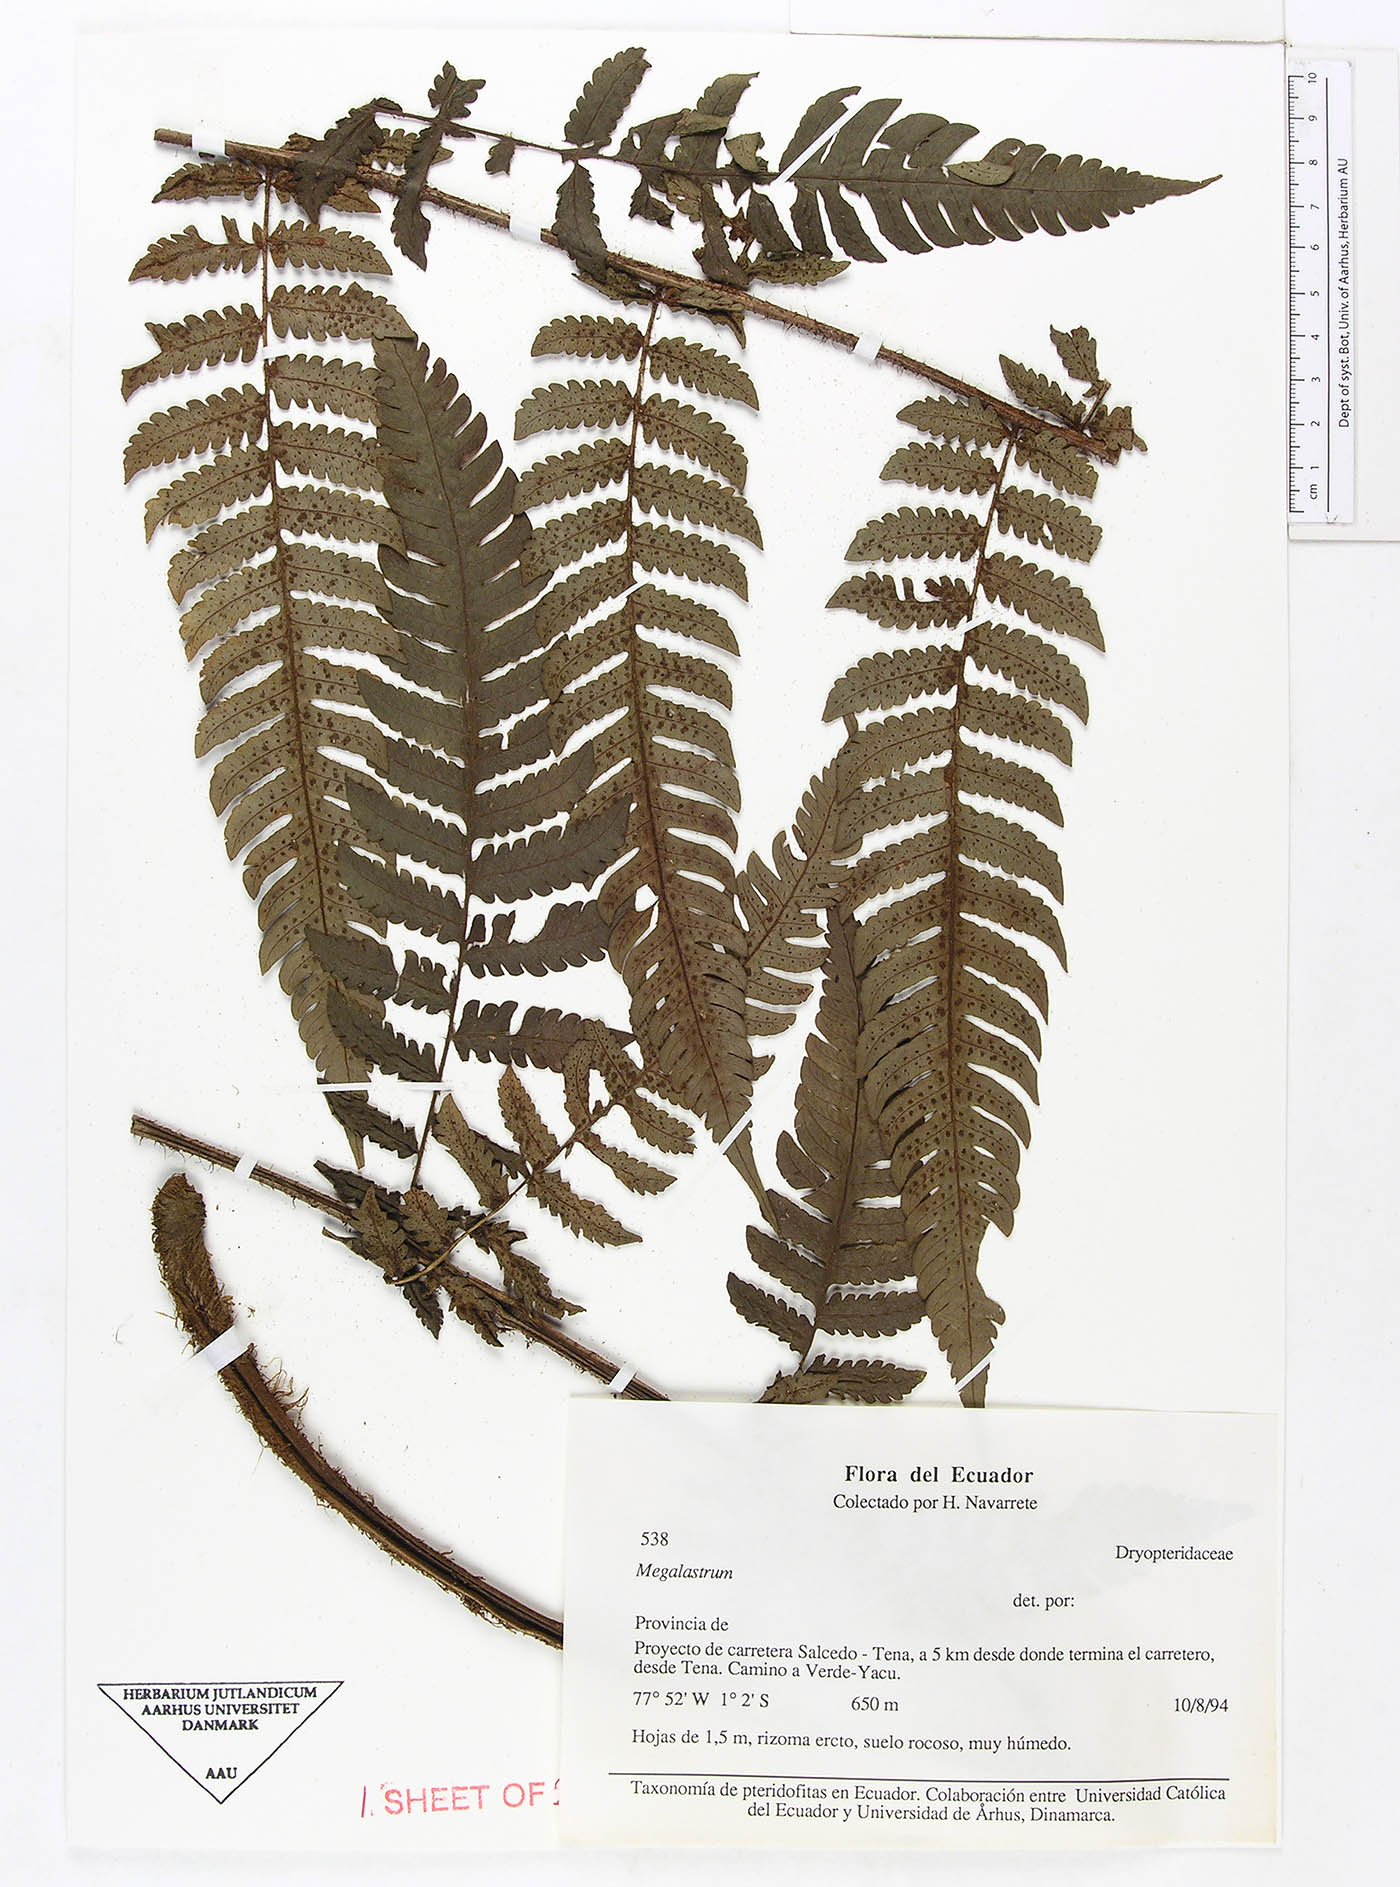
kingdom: Plantae
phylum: Tracheophyta
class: Polypodiopsida
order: Polypodiales
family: Dryopteridaceae
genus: Megalastrum
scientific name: Megalastrum polybotryoides
